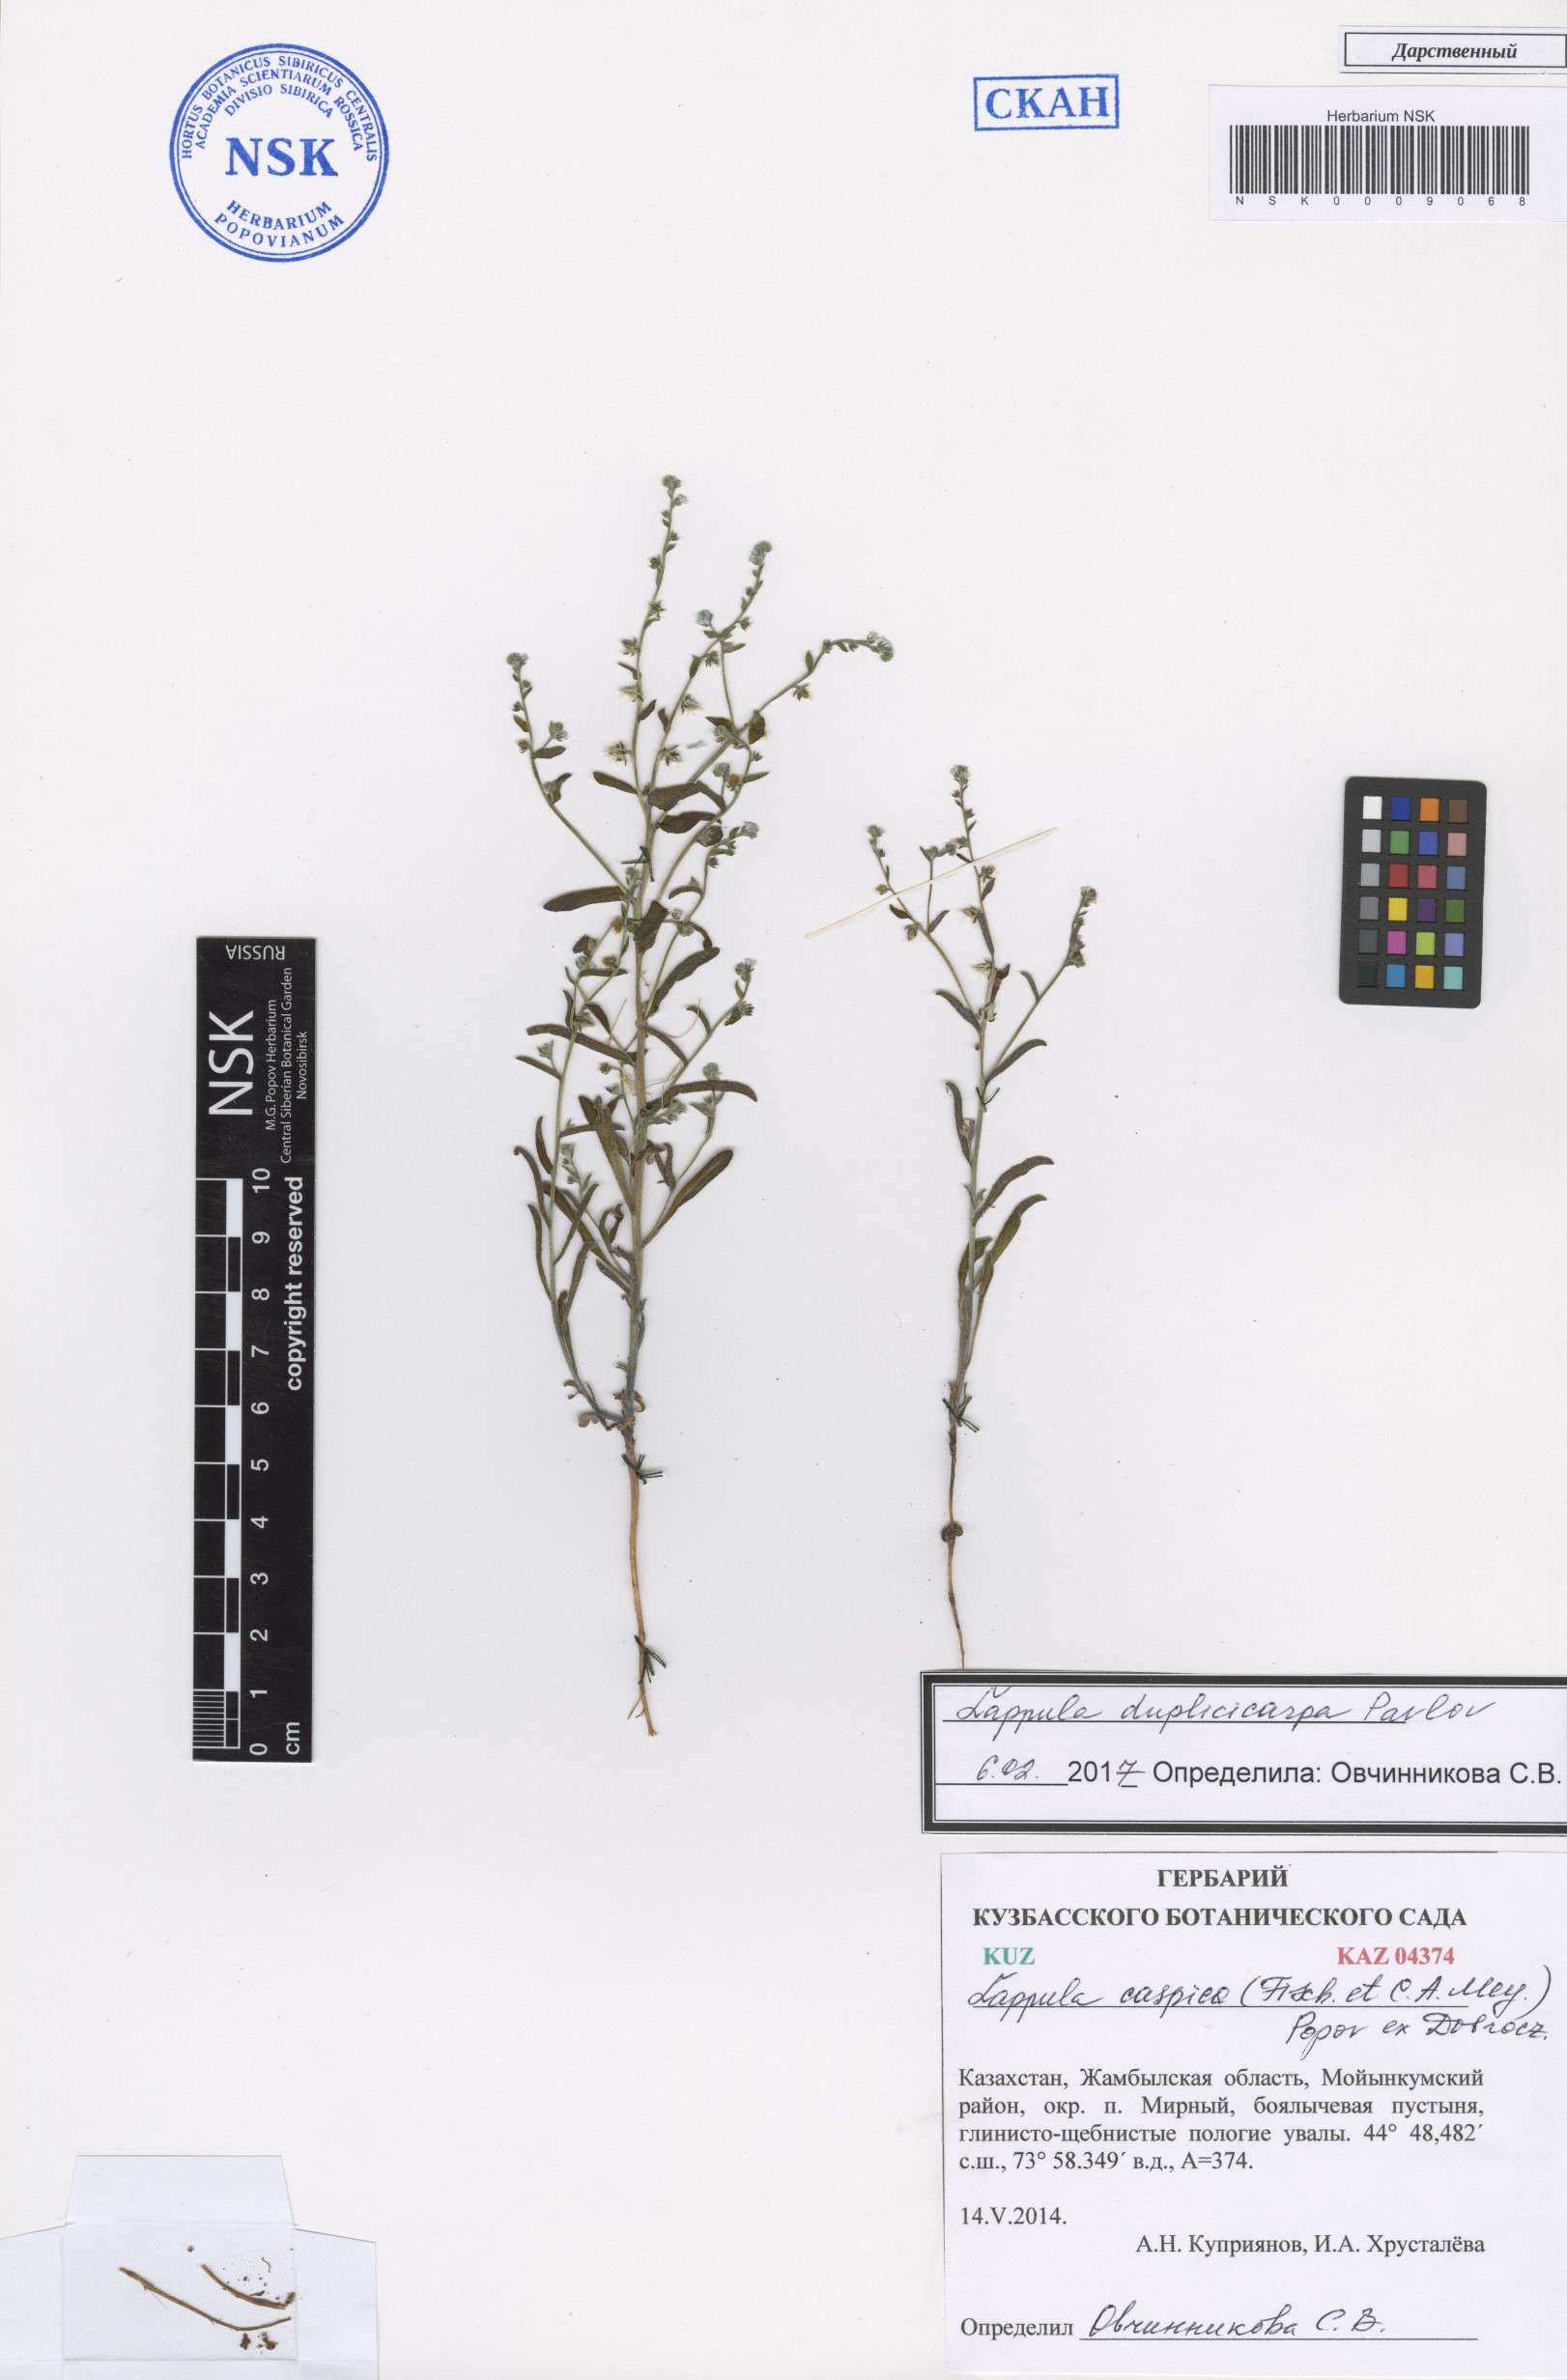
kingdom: Plantae
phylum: Tracheophyta
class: Magnoliopsida
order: Boraginales
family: Boraginaceae
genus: Lappula
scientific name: Lappula duplicicarpa
